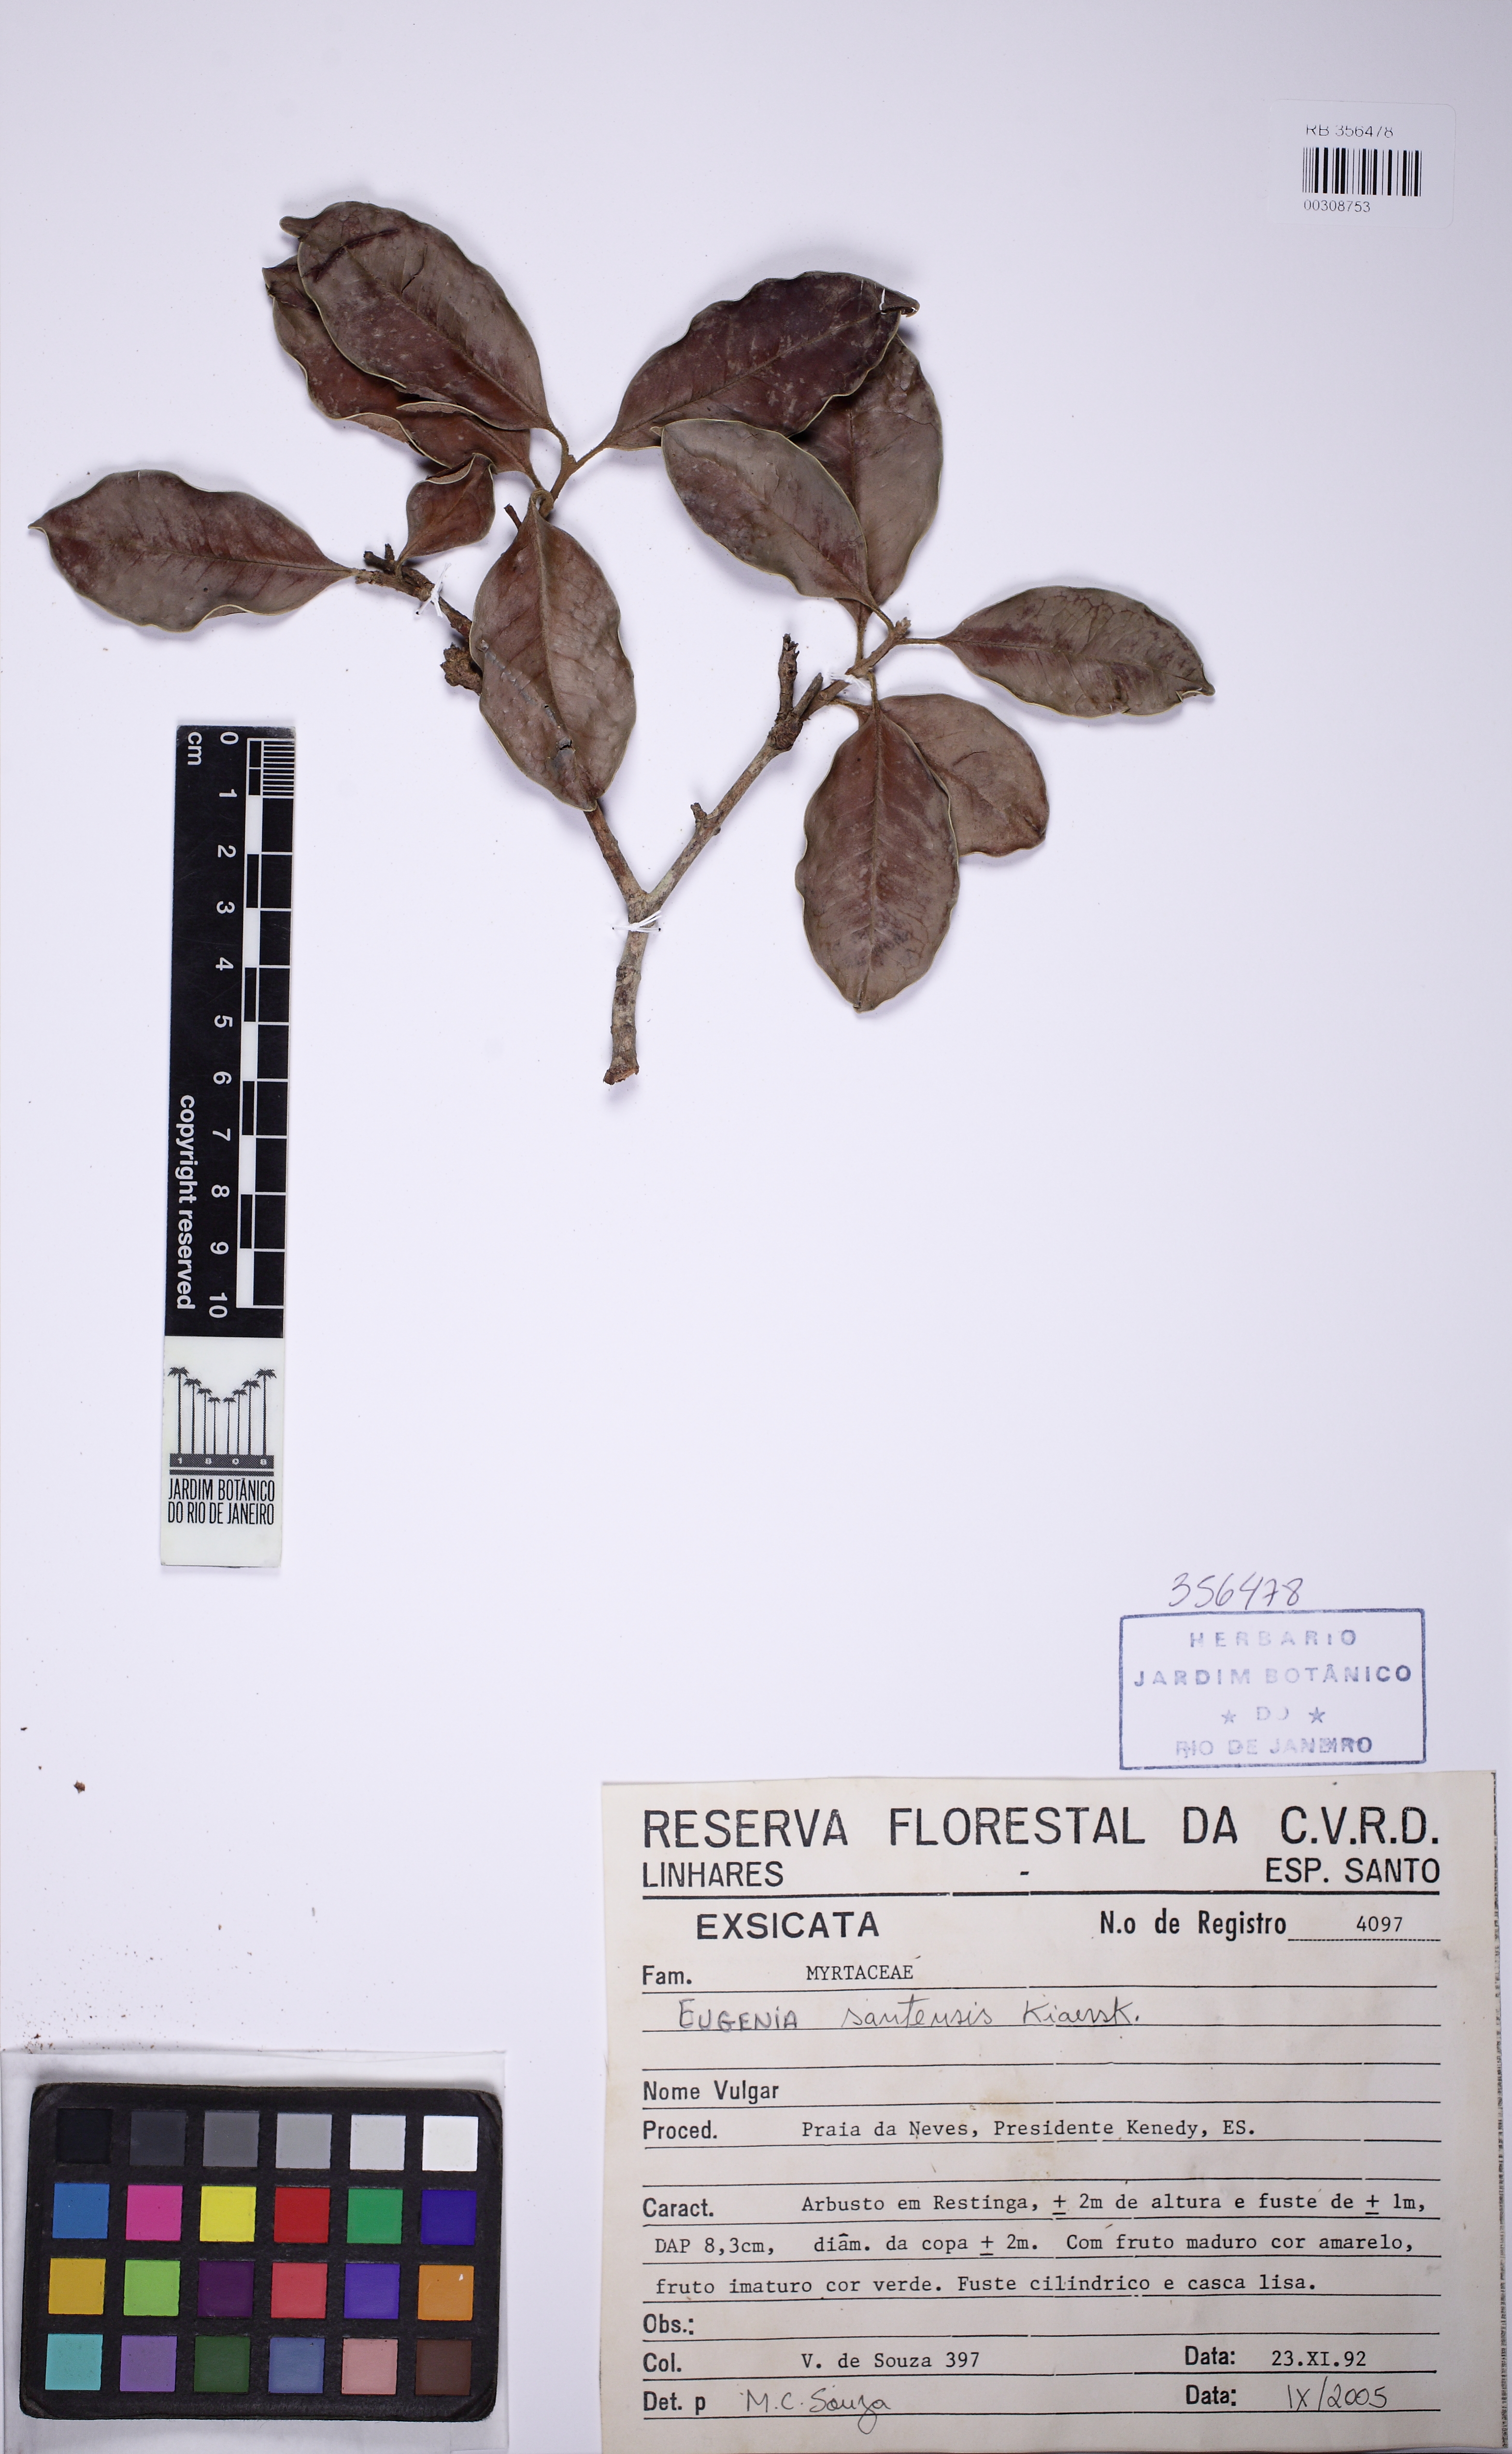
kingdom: Plantae
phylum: Tracheophyta
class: Magnoliopsida
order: Myrtales
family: Myrtaceae
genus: Eugenia
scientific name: Eugenia bunchosiifolia
